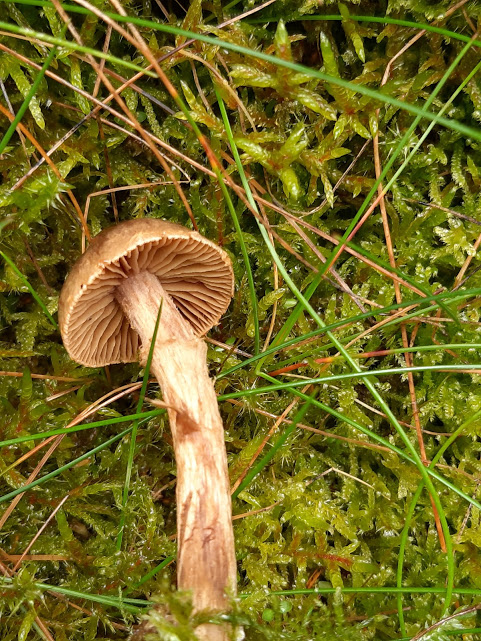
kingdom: Fungi
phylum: Basidiomycota
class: Agaricomycetes
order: Agaricales
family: Cortinariaceae
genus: Cortinarius
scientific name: Cortinarius
